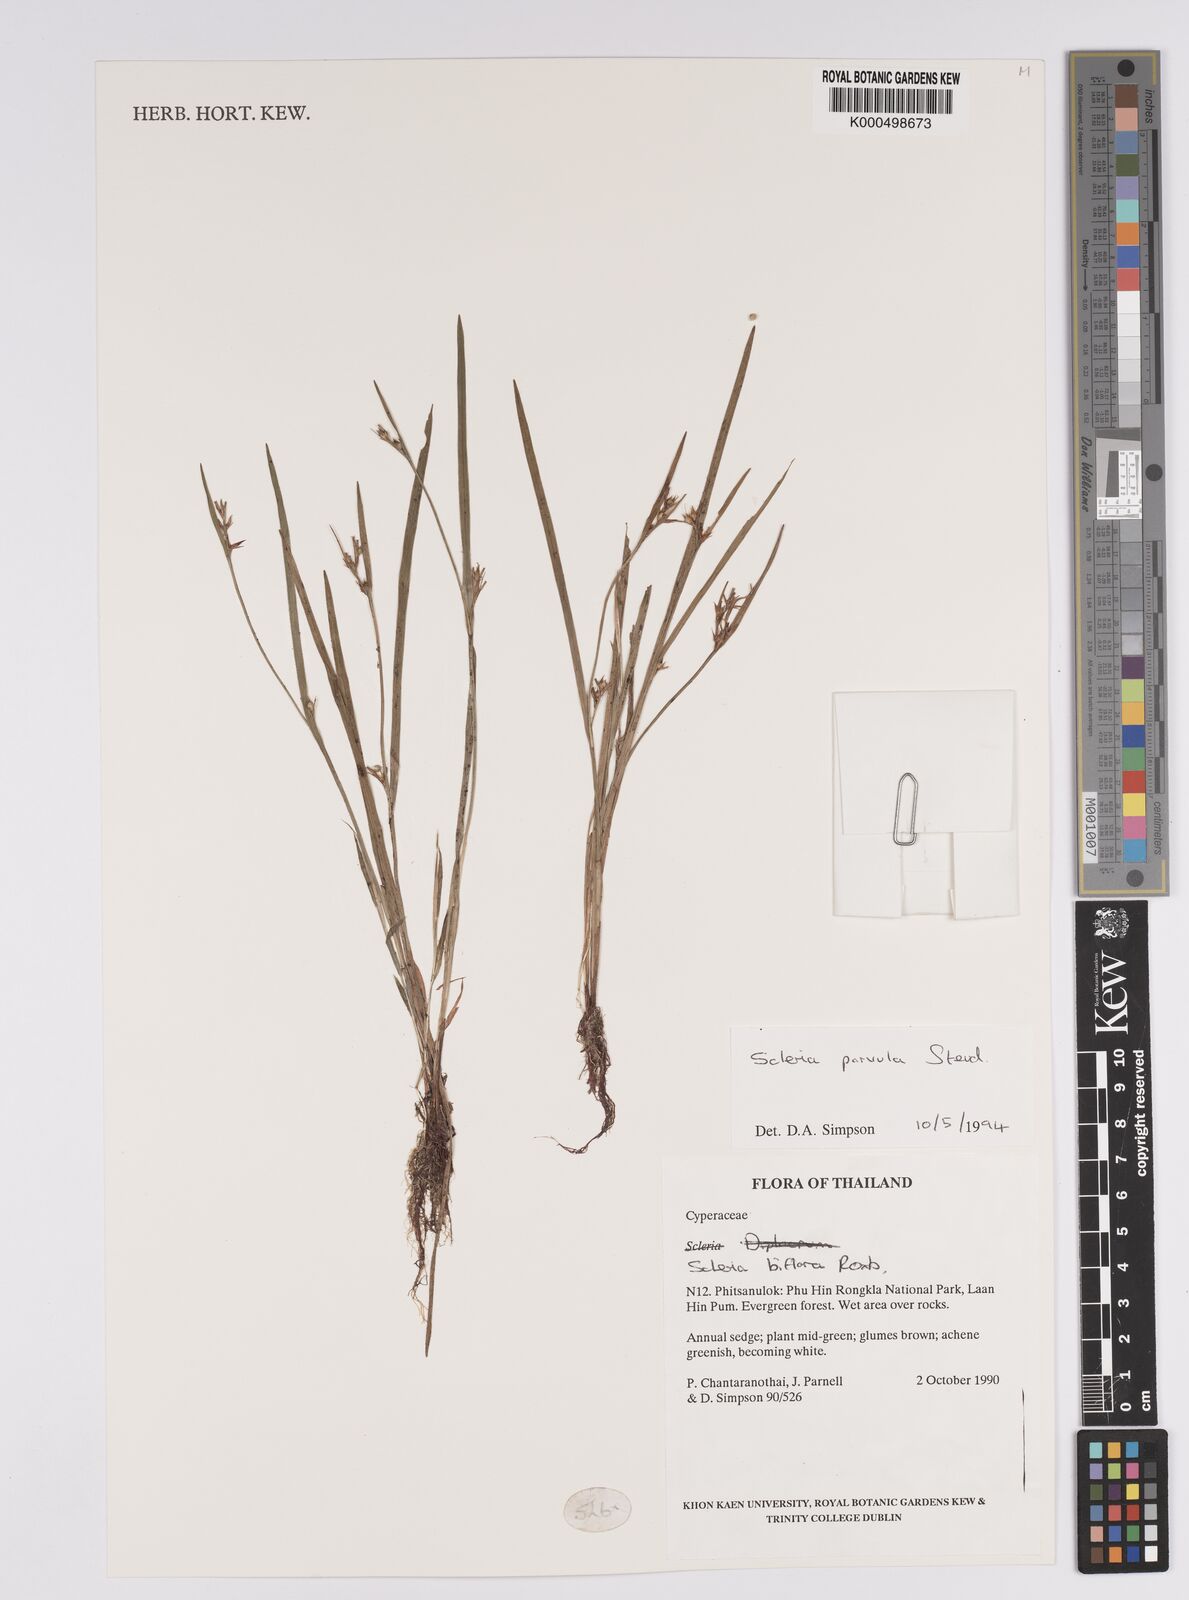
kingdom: Plantae
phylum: Tracheophyta
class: Liliopsida
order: Poales
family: Cyperaceae
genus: Scleria
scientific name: Scleria parvula
